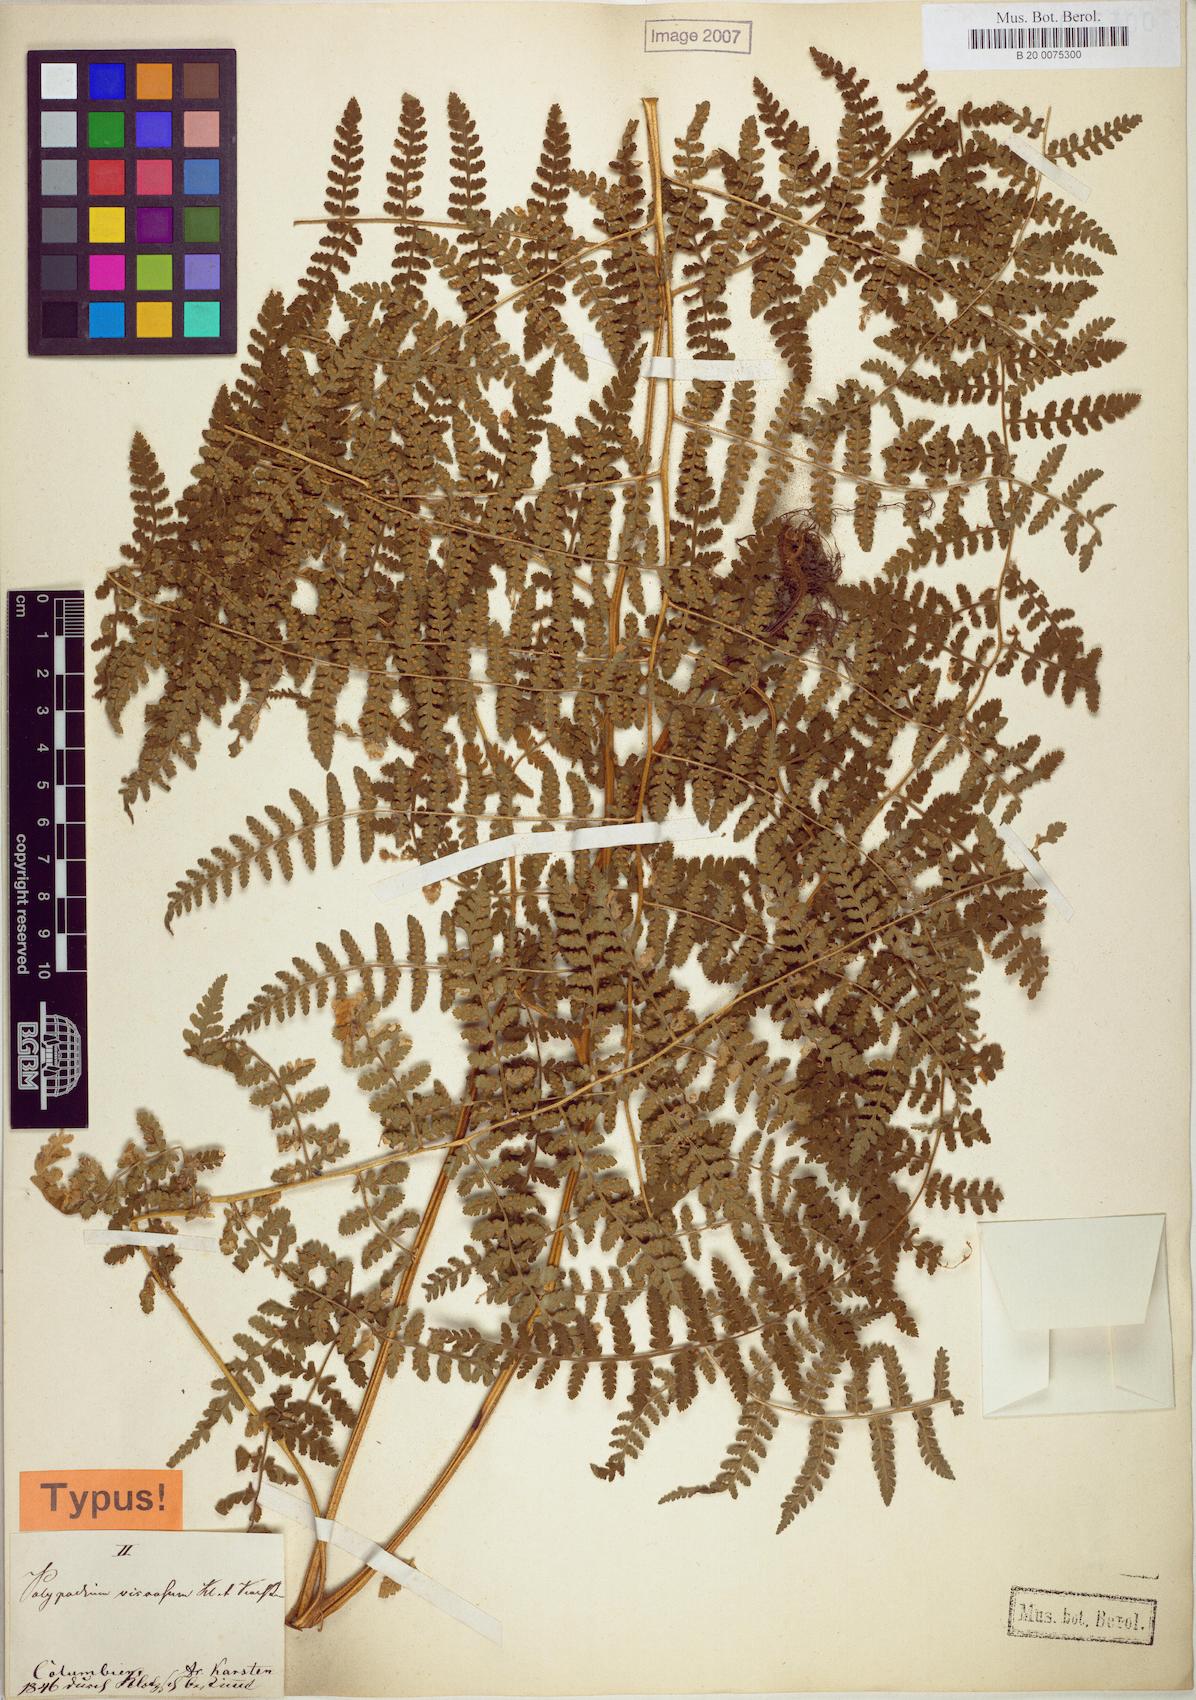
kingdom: Plantae
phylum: Tracheophyta
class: Polypodiopsida
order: Polypodiales
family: Dennstaedtiaceae
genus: Hypolepis
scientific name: Hypolepis viscosa
